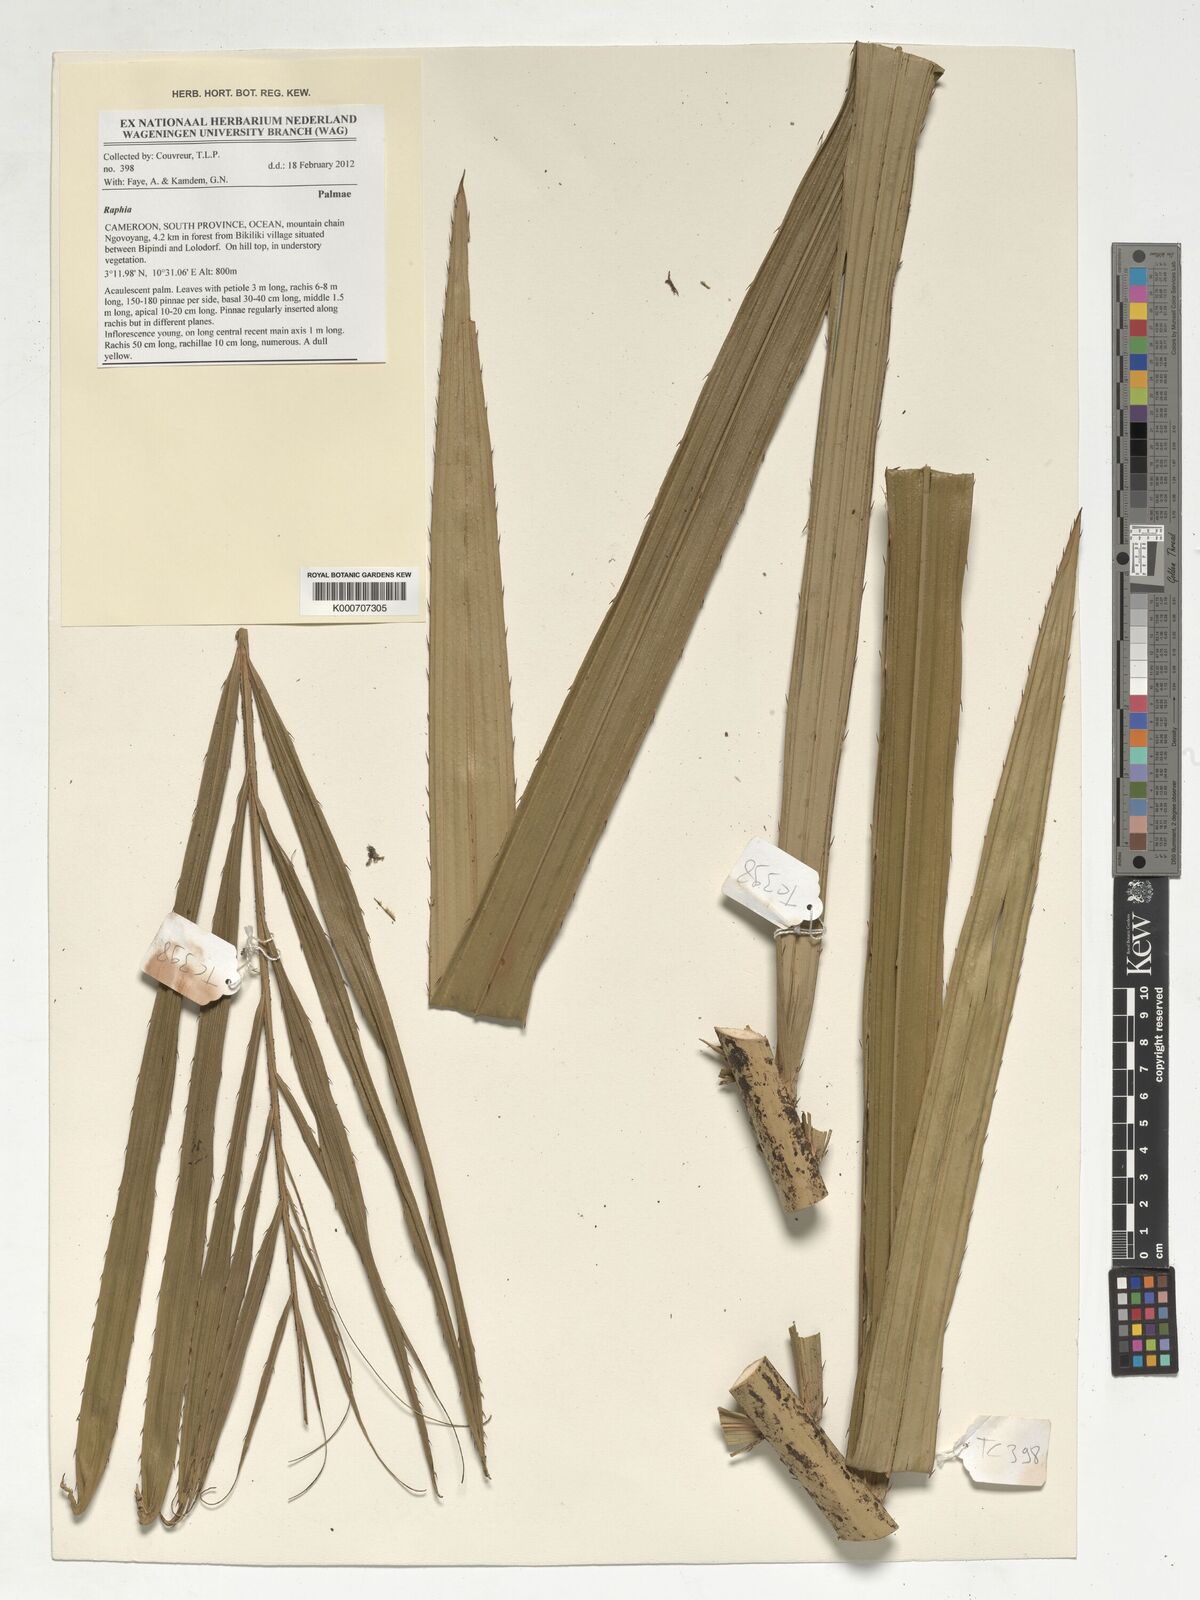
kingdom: Plantae
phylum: Tracheophyta
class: Liliopsida
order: Arecales
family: Arecaceae
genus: Raphia
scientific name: Raphia
